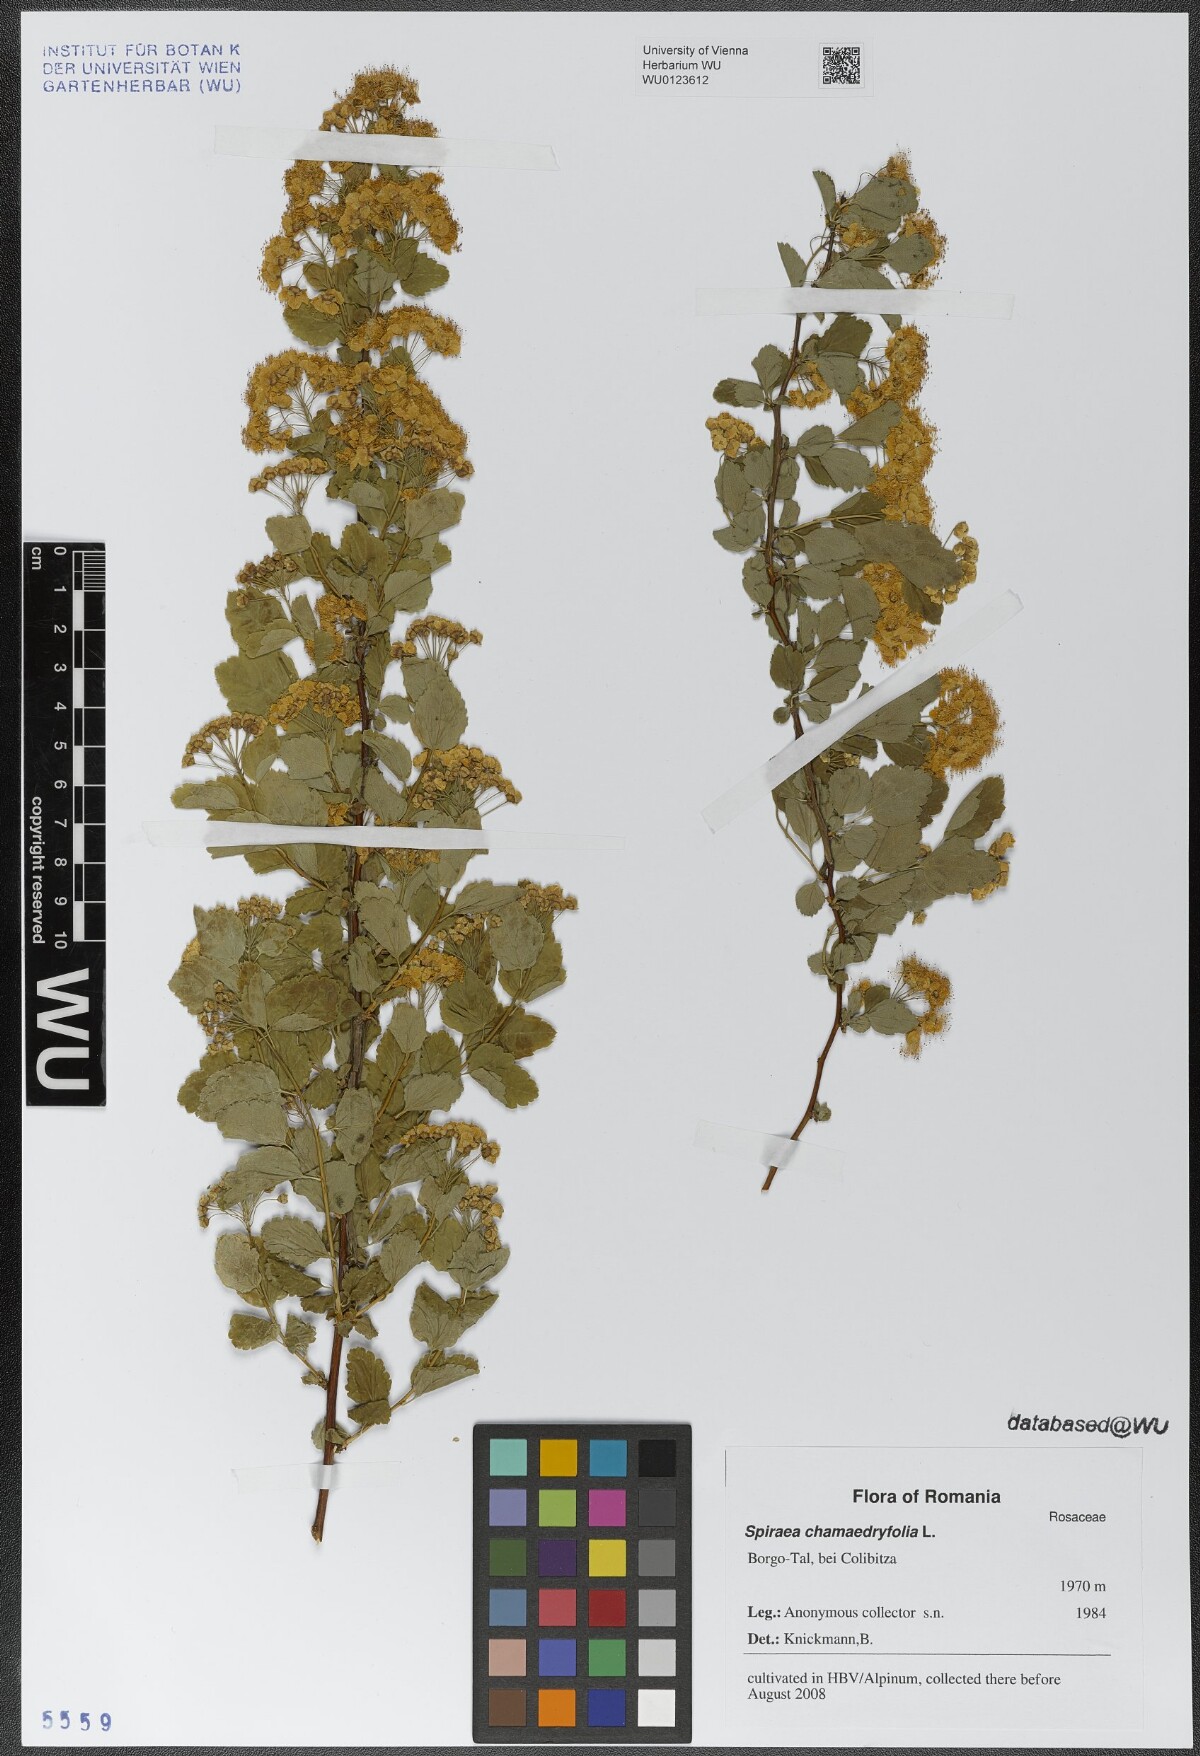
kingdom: Plantae
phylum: Tracheophyta
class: Magnoliopsida
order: Rosales
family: Rosaceae
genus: Spiraea
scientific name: Spiraea chamaedryfolia
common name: Elm-leaved spiraea
